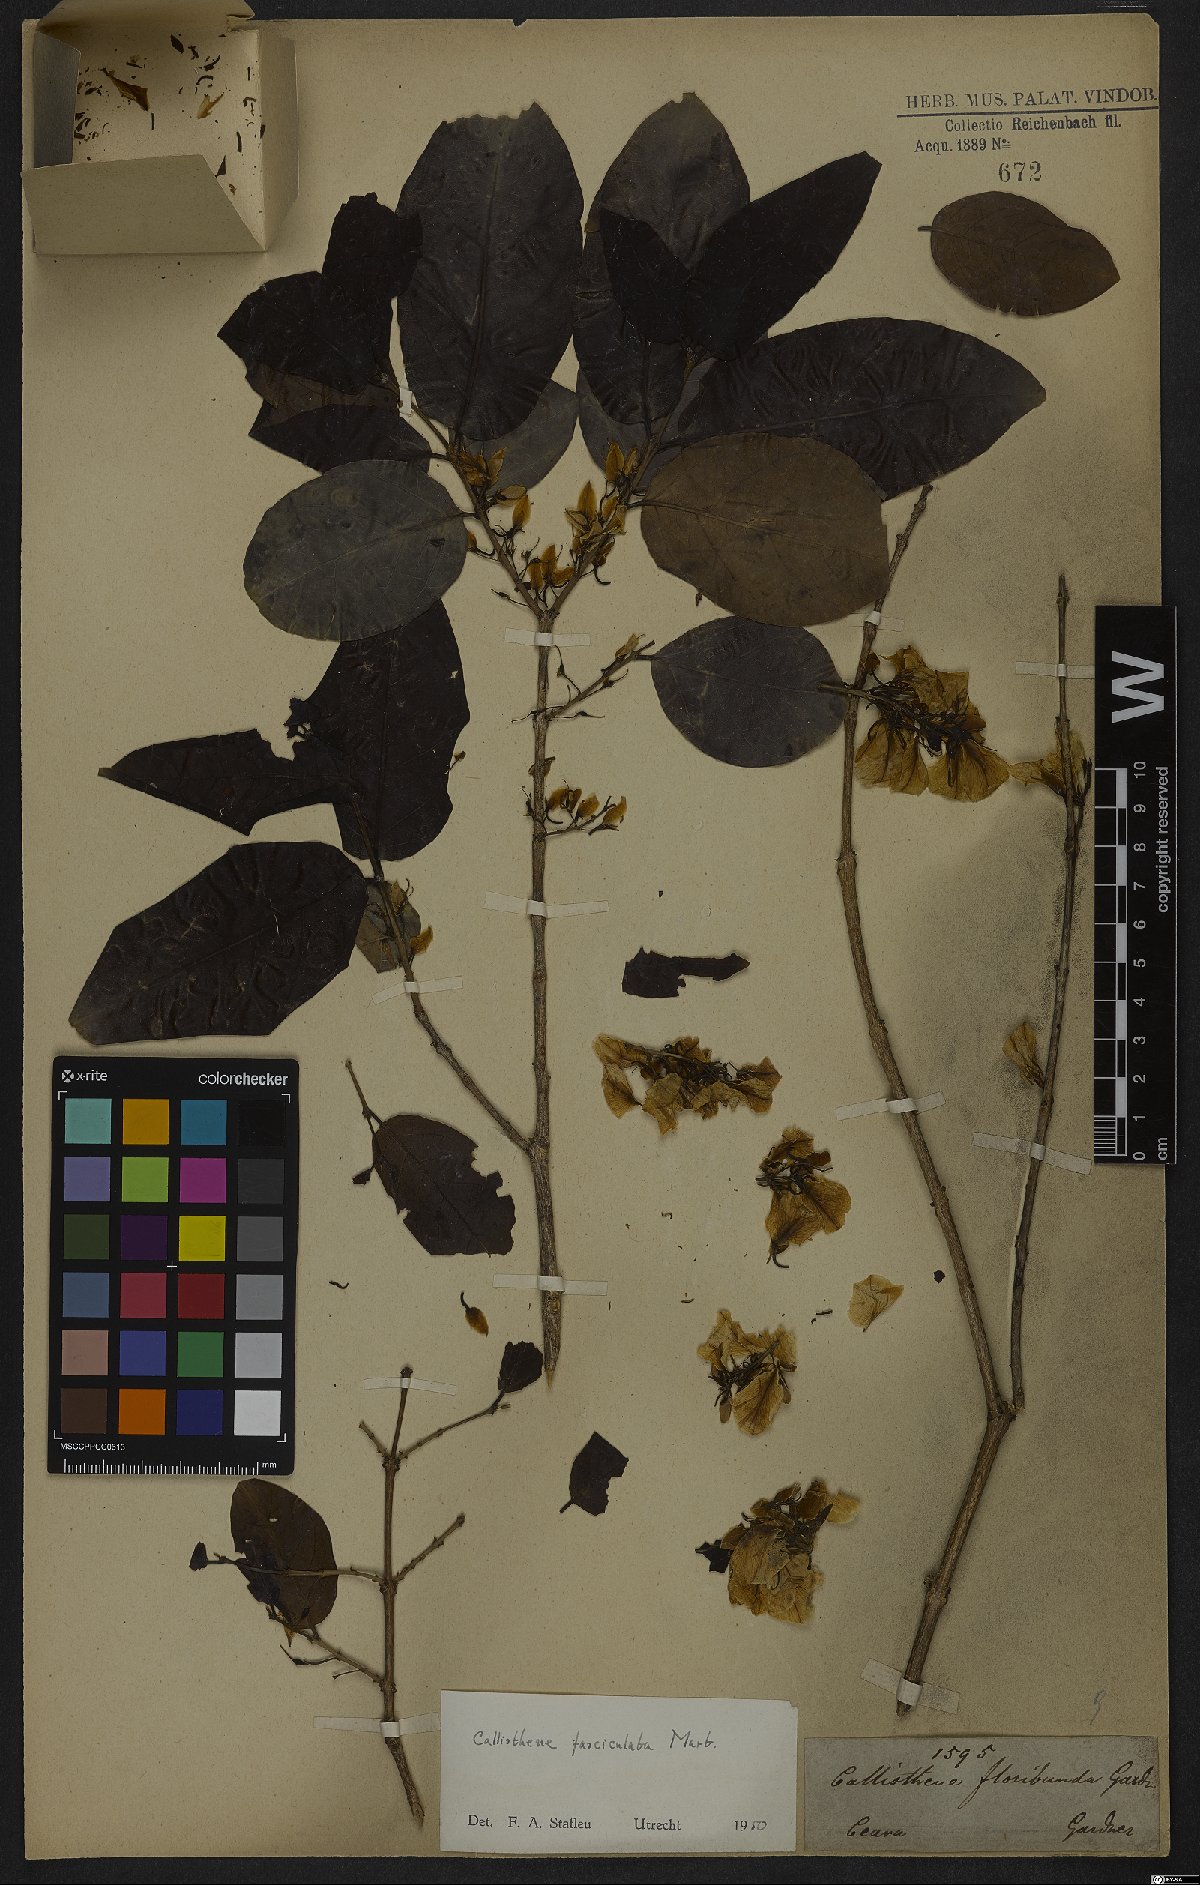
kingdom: Plantae
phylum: Tracheophyta
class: Magnoliopsida
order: Myrtales
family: Vochysiaceae
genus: Callisthene
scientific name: Callisthene fasciculata
